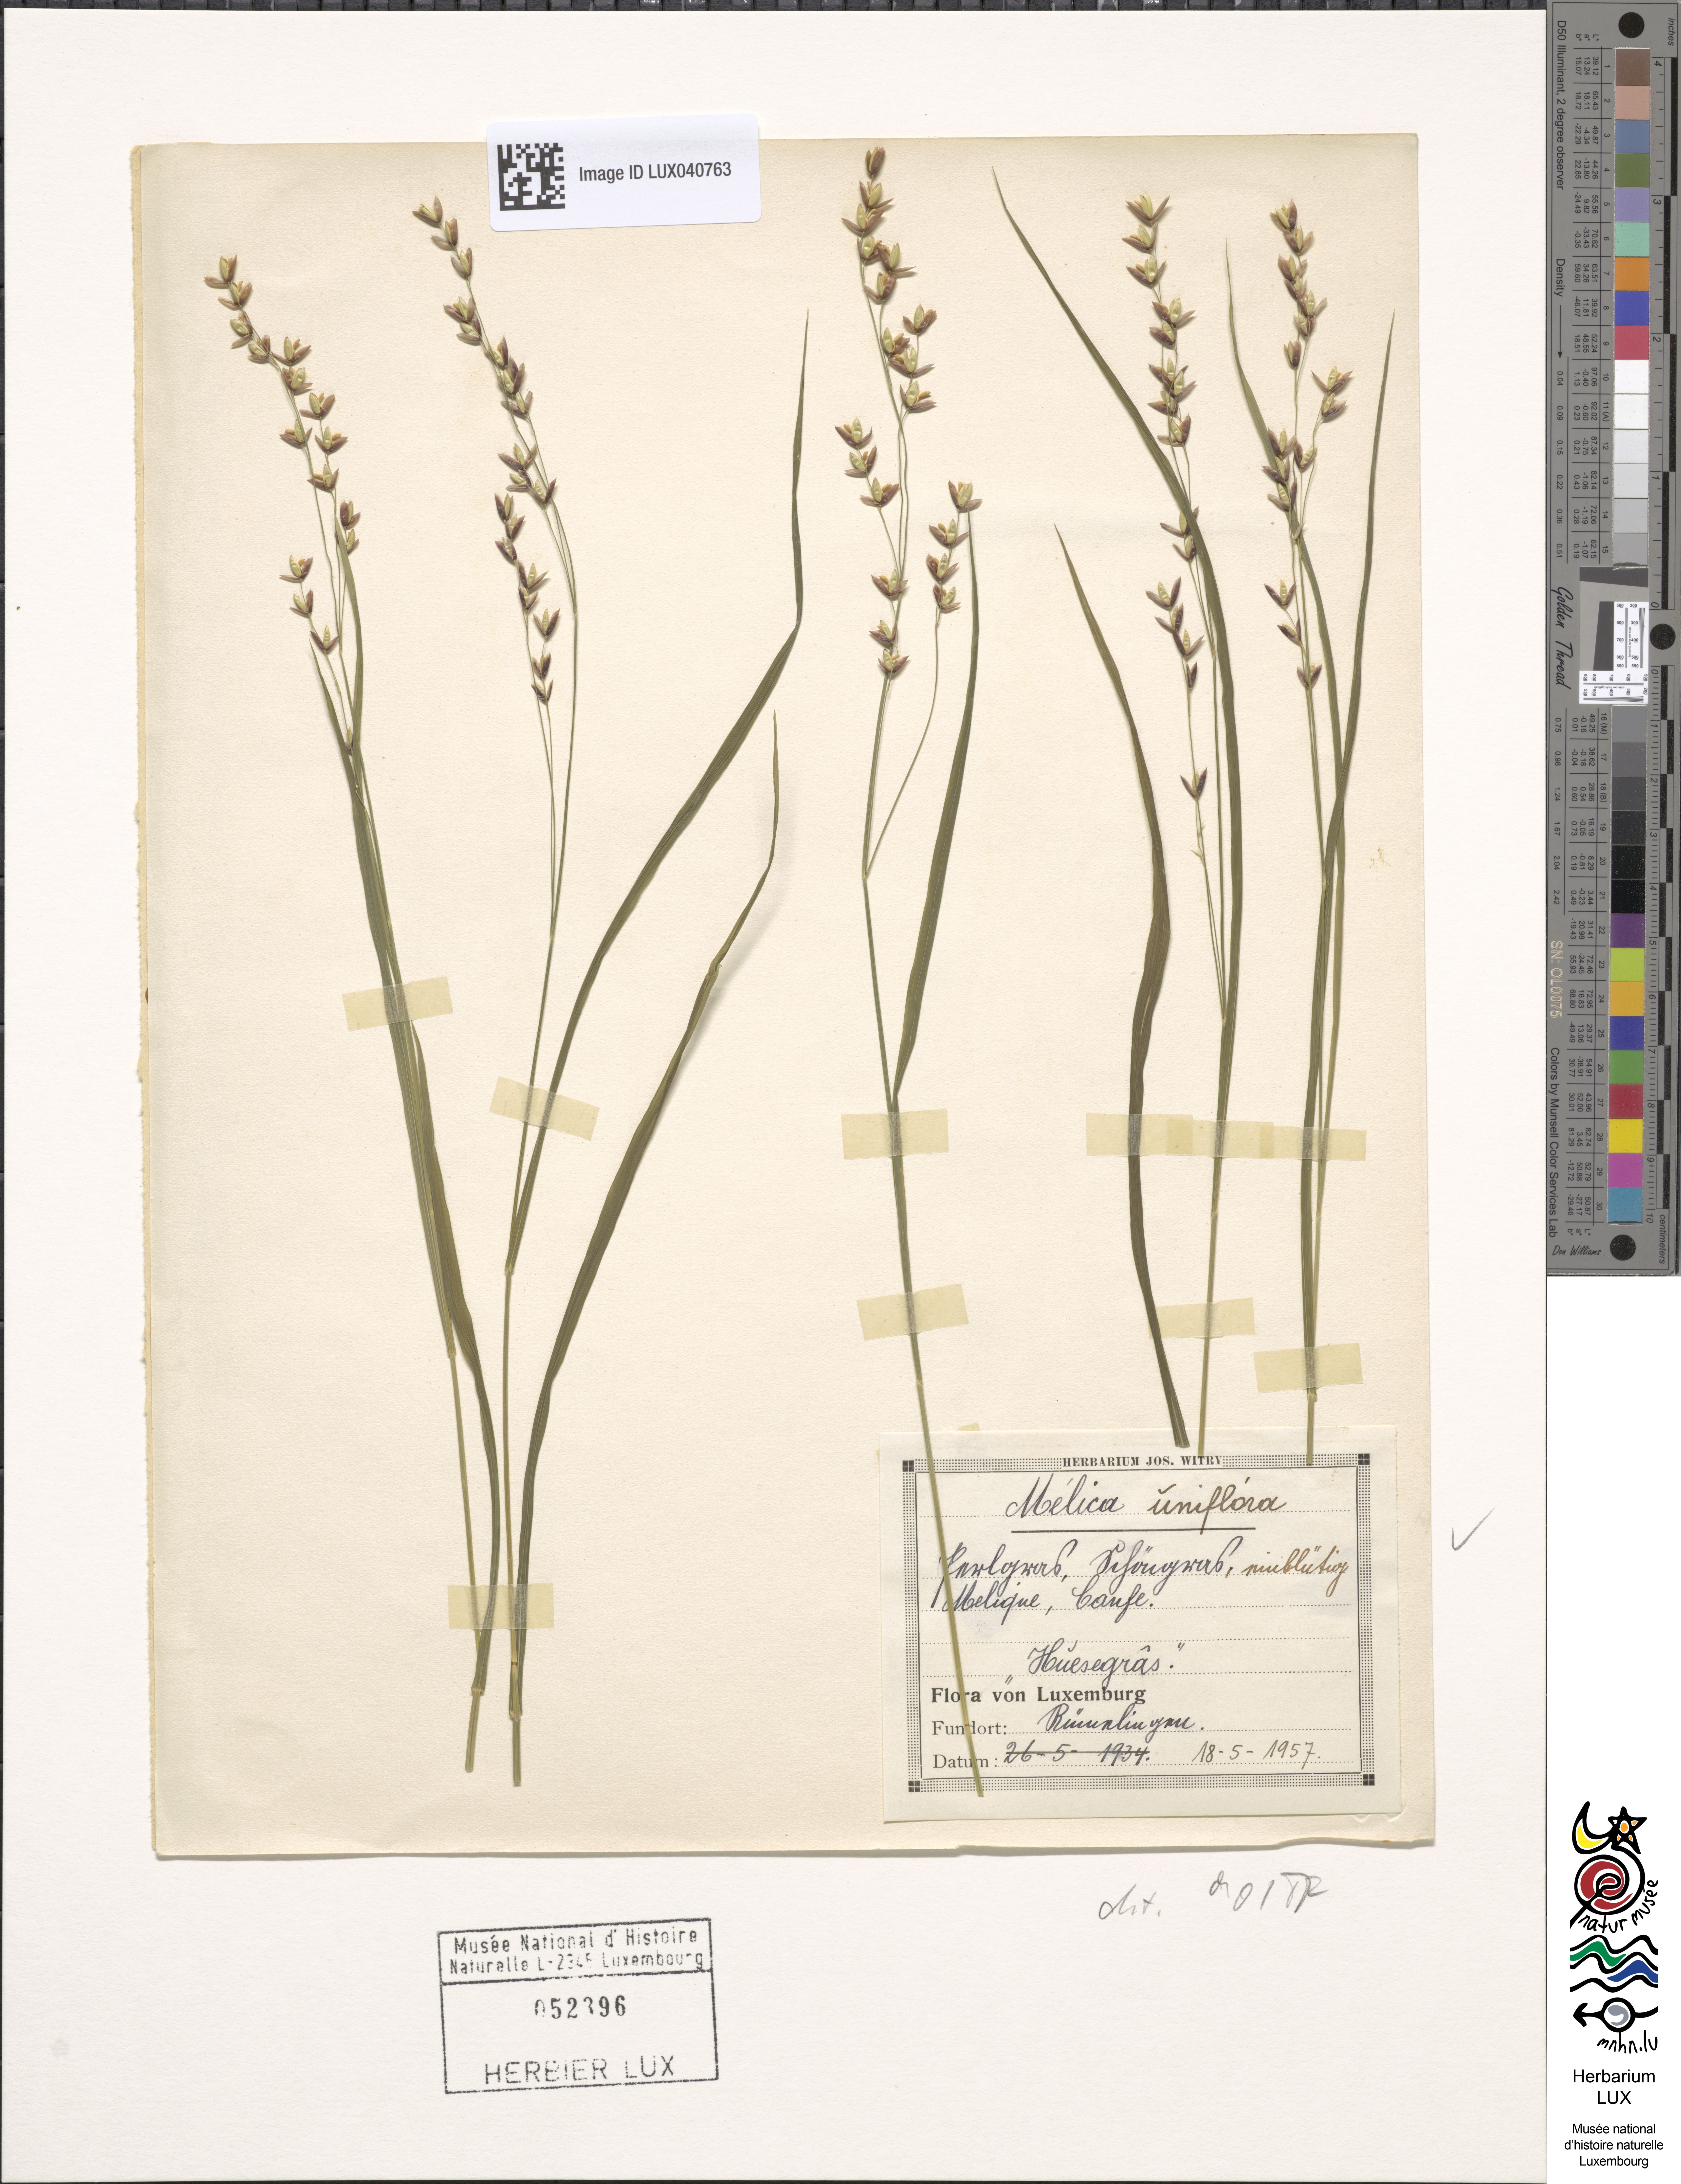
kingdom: Plantae
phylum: Tracheophyta
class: Liliopsida
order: Poales
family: Poaceae
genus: Melica
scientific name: Melica uniflora
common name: Wood melick
